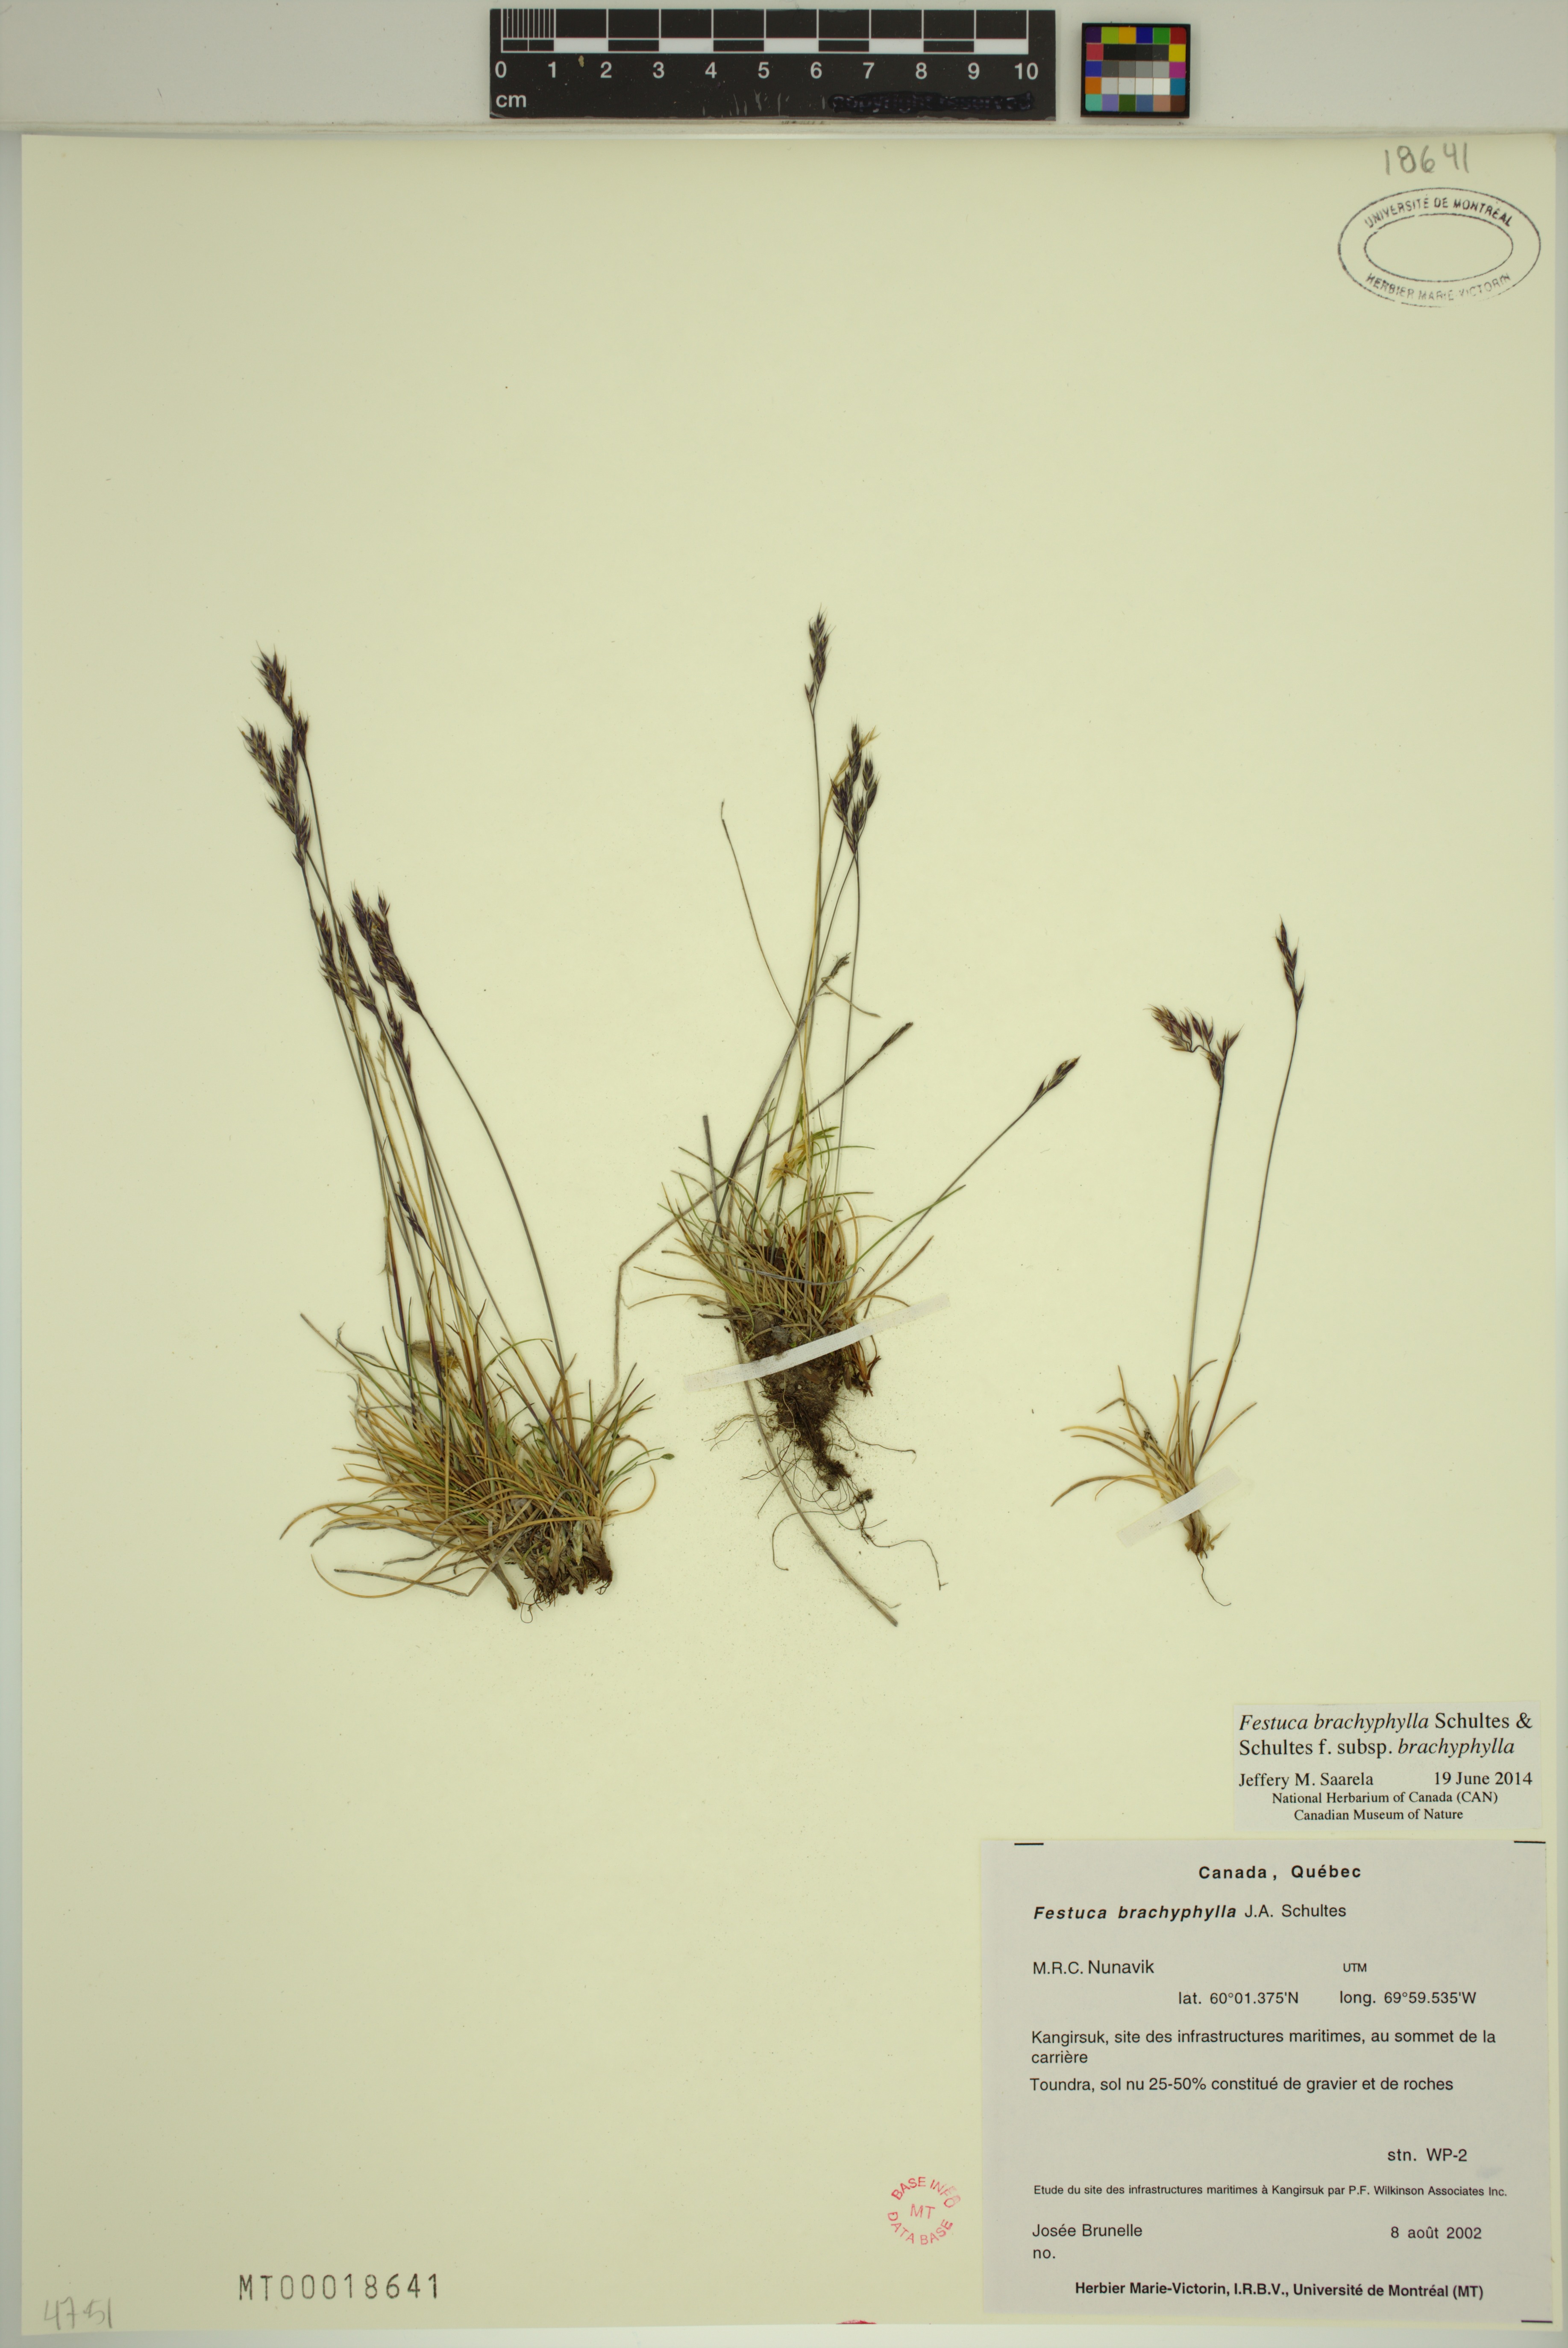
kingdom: Plantae
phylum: Tracheophyta
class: Liliopsida
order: Poales
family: Poaceae
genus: Festuca
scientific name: Festuca brachyphylla
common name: Alpine fescue
